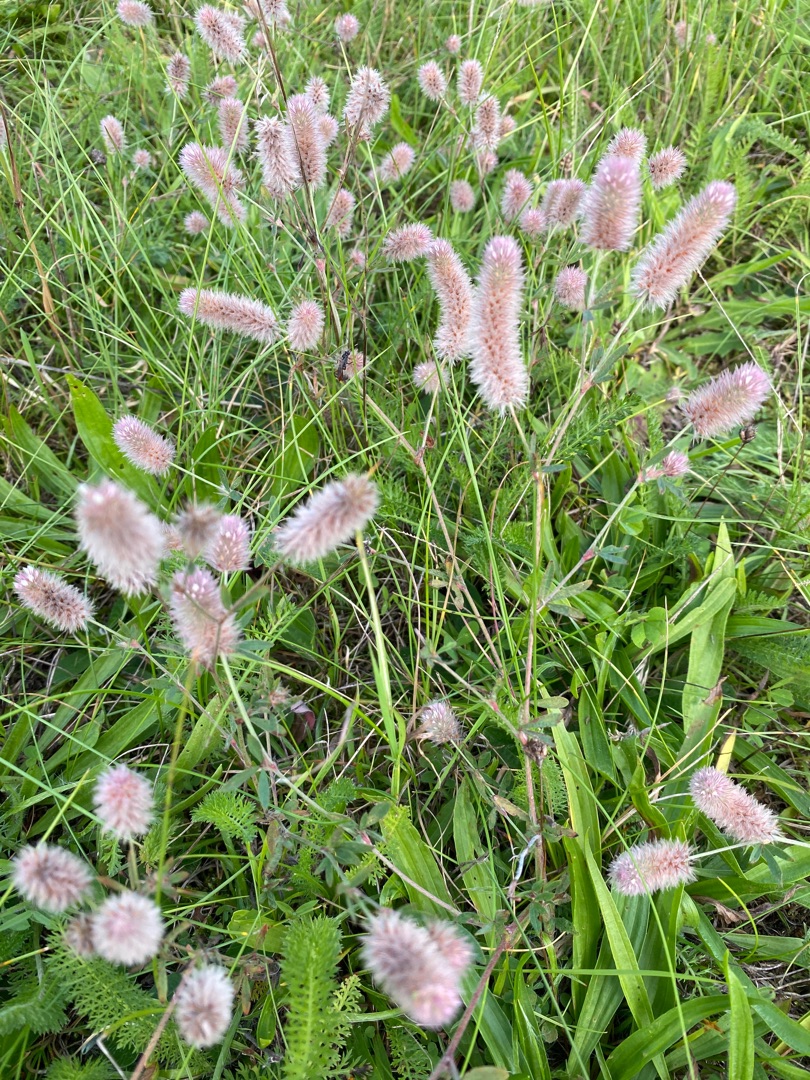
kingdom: Plantae
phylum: Tracheophyta
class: Magnoliopsida
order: Fabales
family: Fabaceae
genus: Trifolium
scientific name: Trifolium arvense
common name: Hare-kløver
